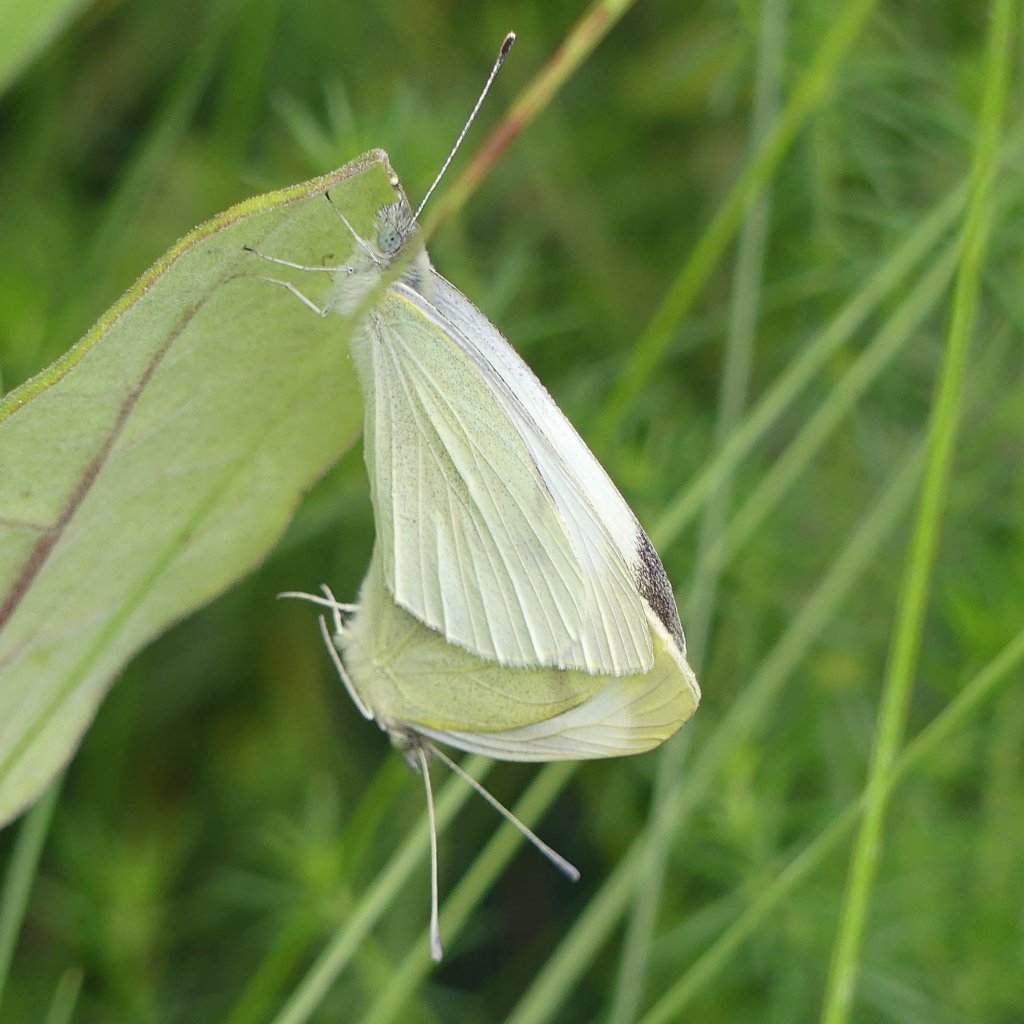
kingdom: Animalia
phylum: Arthropoda
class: Insecta
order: Lepidoptera
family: Pieridae
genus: Pieris
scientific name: Pieris rapae
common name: Cabbage White
